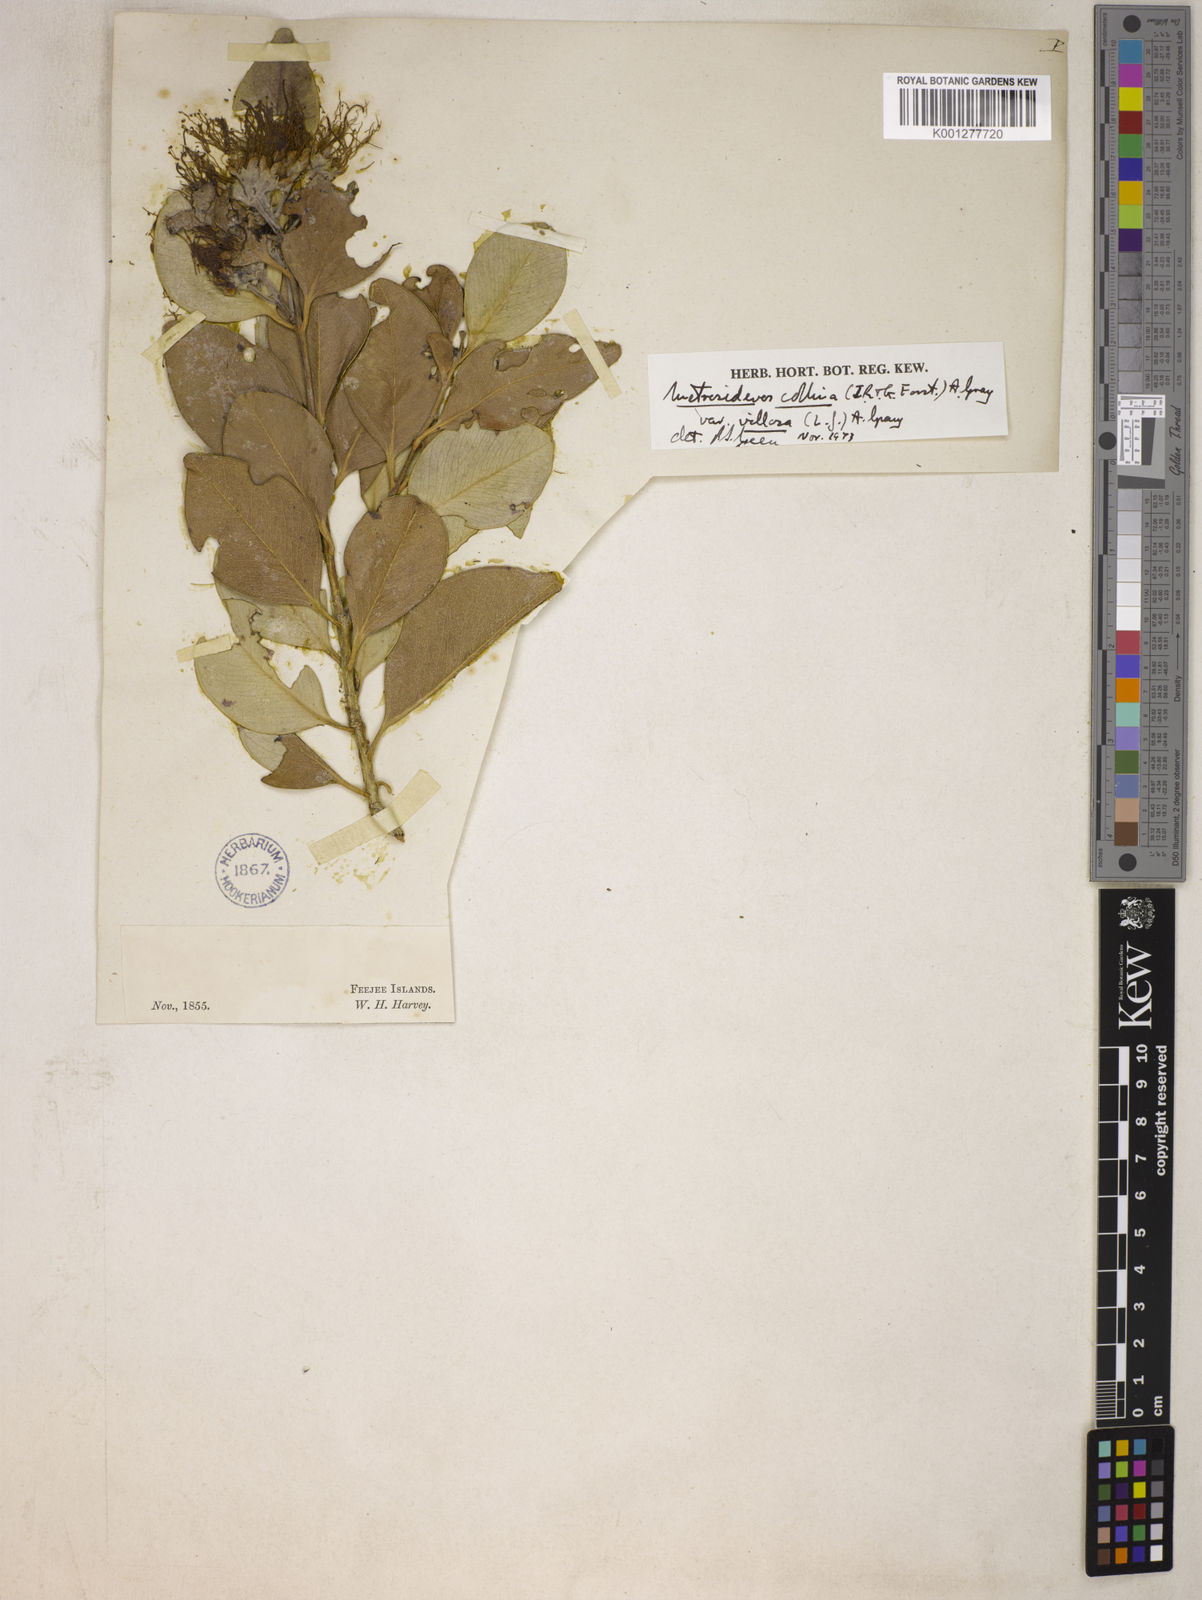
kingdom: Plantae
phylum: Tracheophyta
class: Magnoliopsida
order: Myrtales
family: Myrtaceae
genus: Metrosideros
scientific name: Metrosideros collina
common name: Vunga
